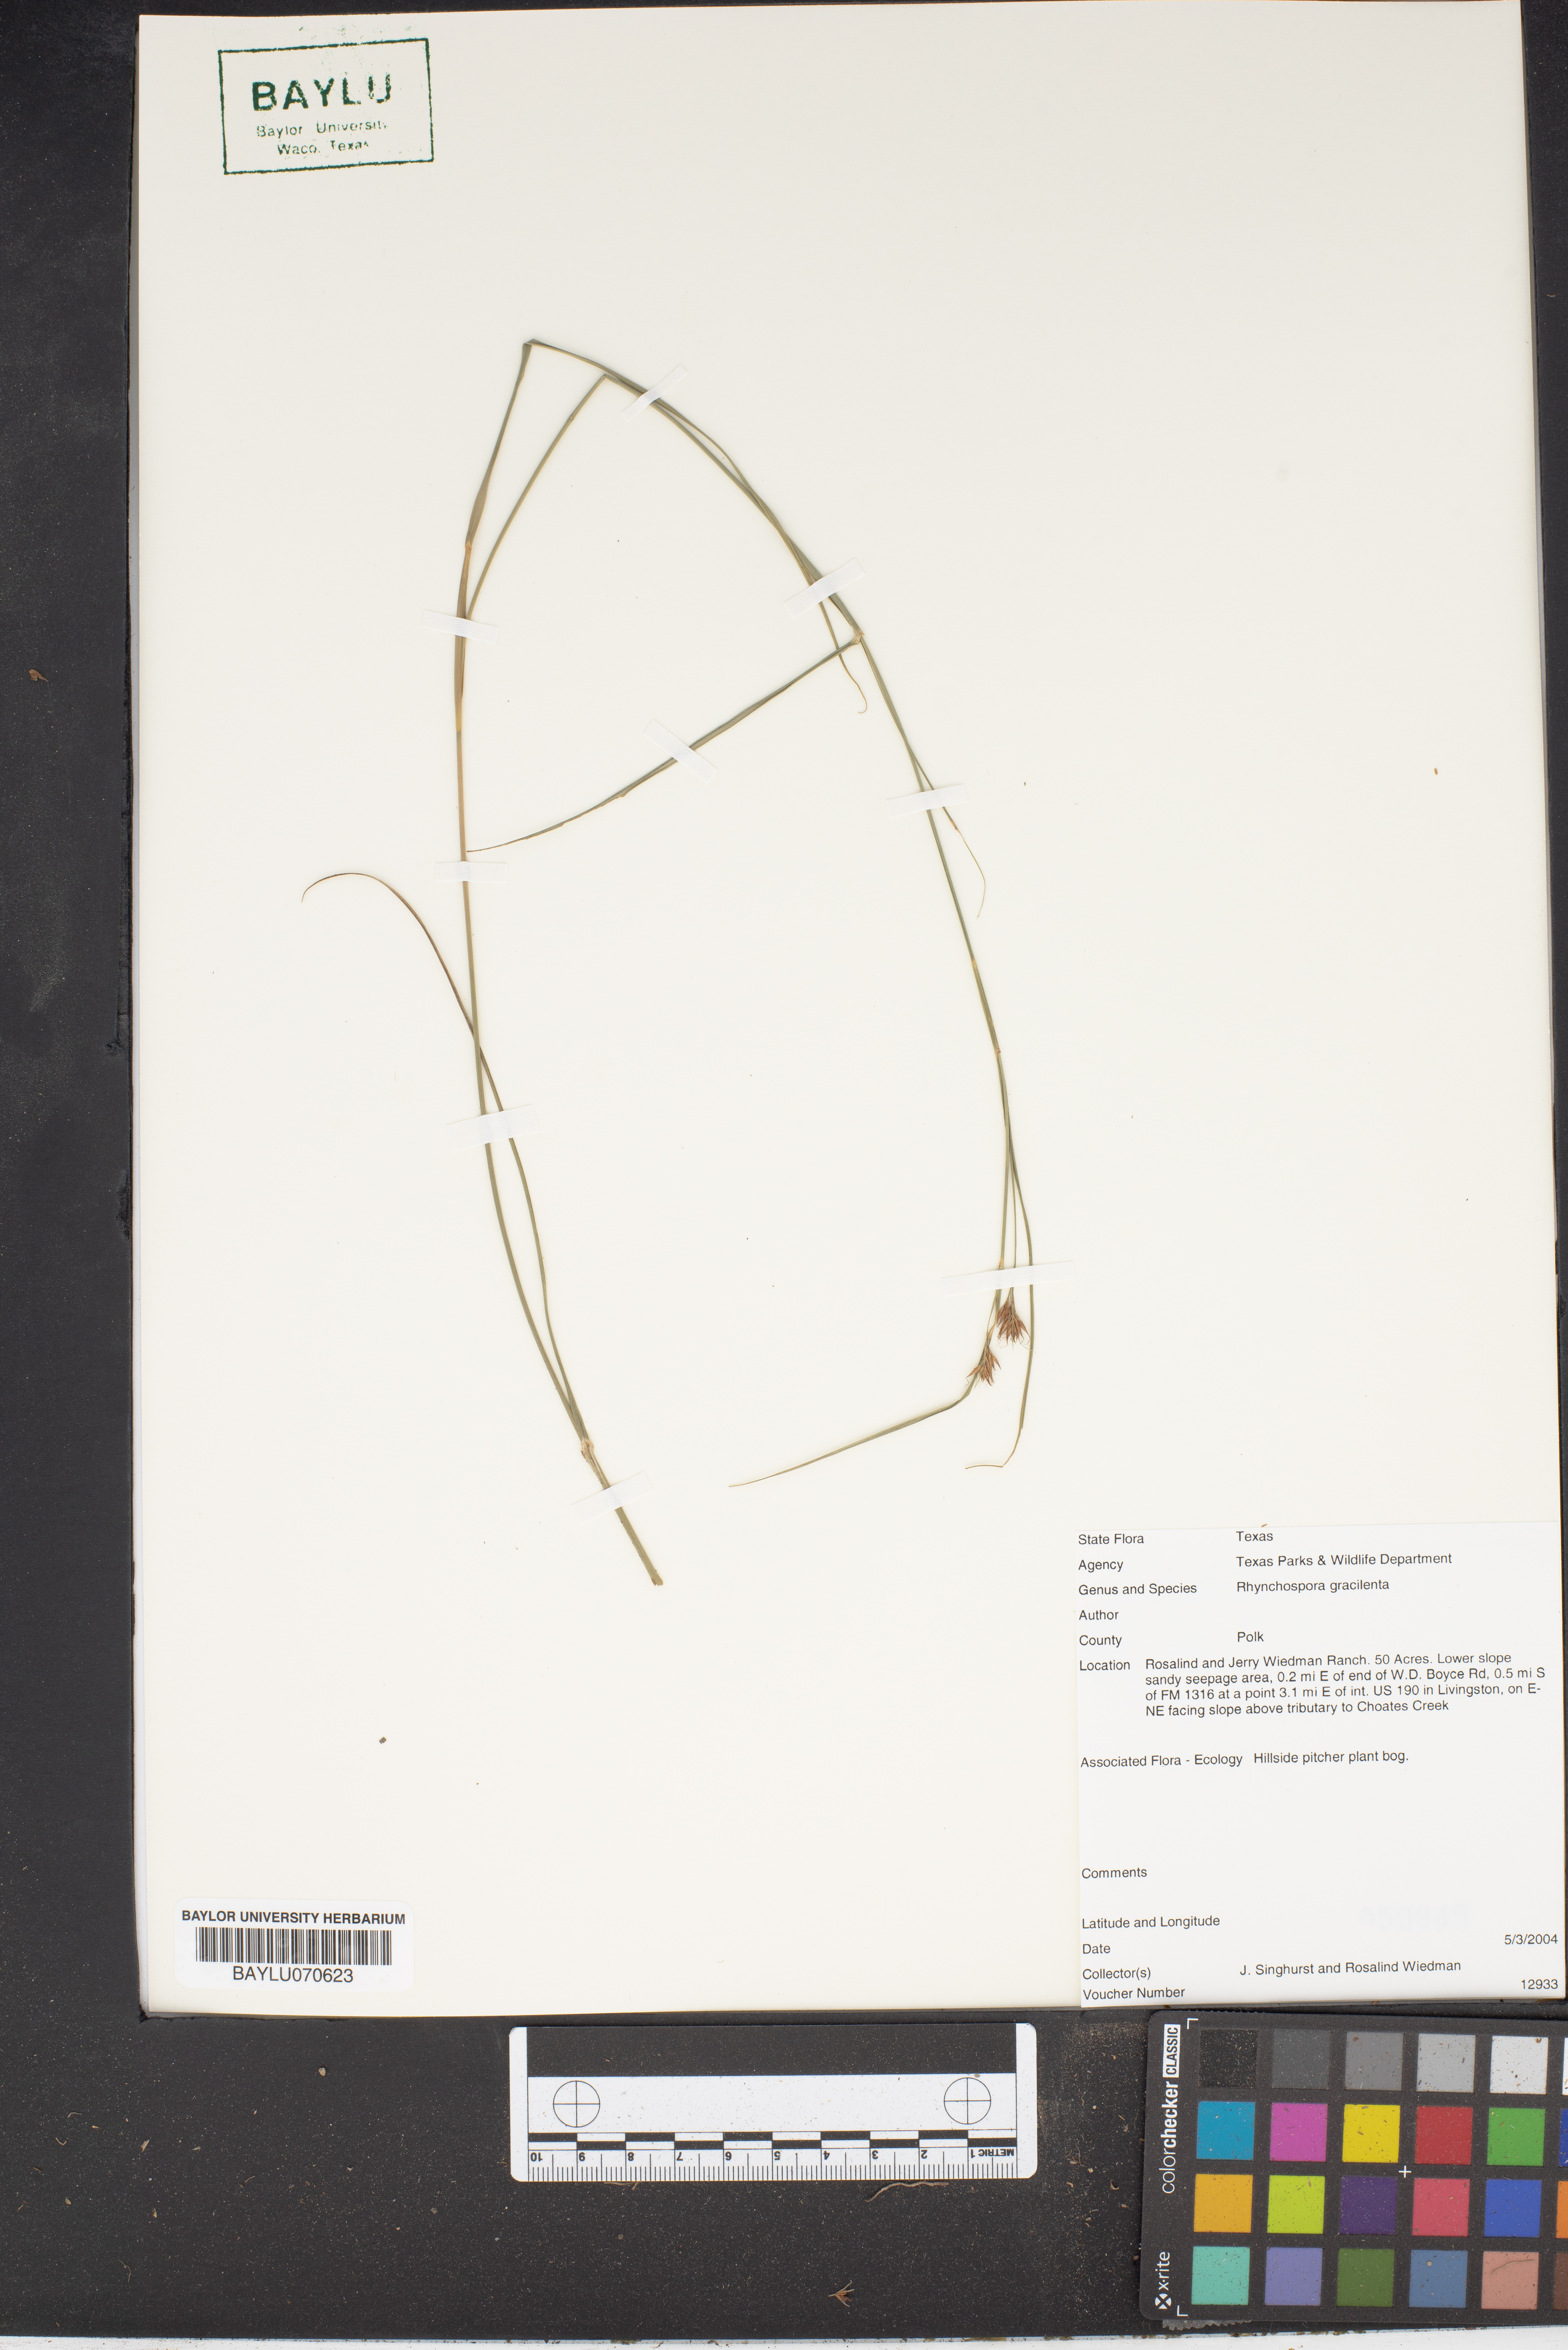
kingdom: Plantae
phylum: Tracheophyta
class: Liliopsida
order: Poales
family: Cyperaceae
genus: Rhynchospora
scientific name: Rhynchospora gracilenta
